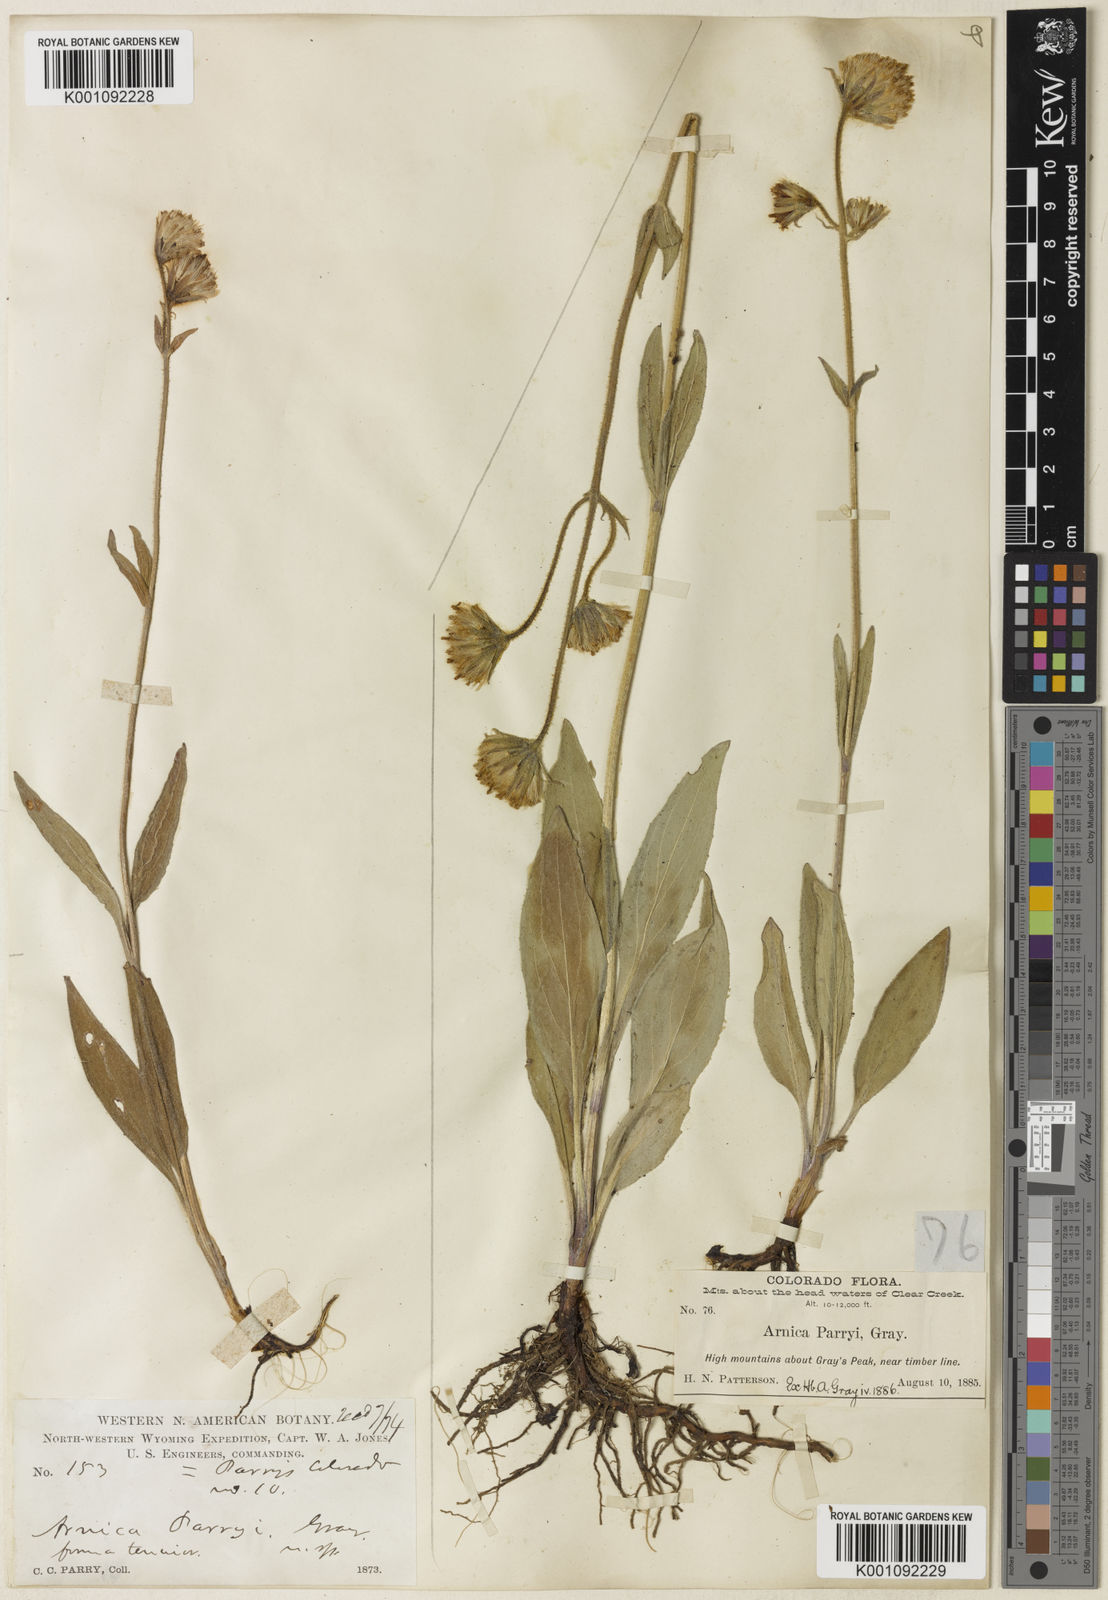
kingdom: Plantae
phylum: Tracheophyta
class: Magnoliopsida
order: Asterales
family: Asteraceae
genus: Arnica
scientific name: Arnica parryi
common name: Parry's arnica
